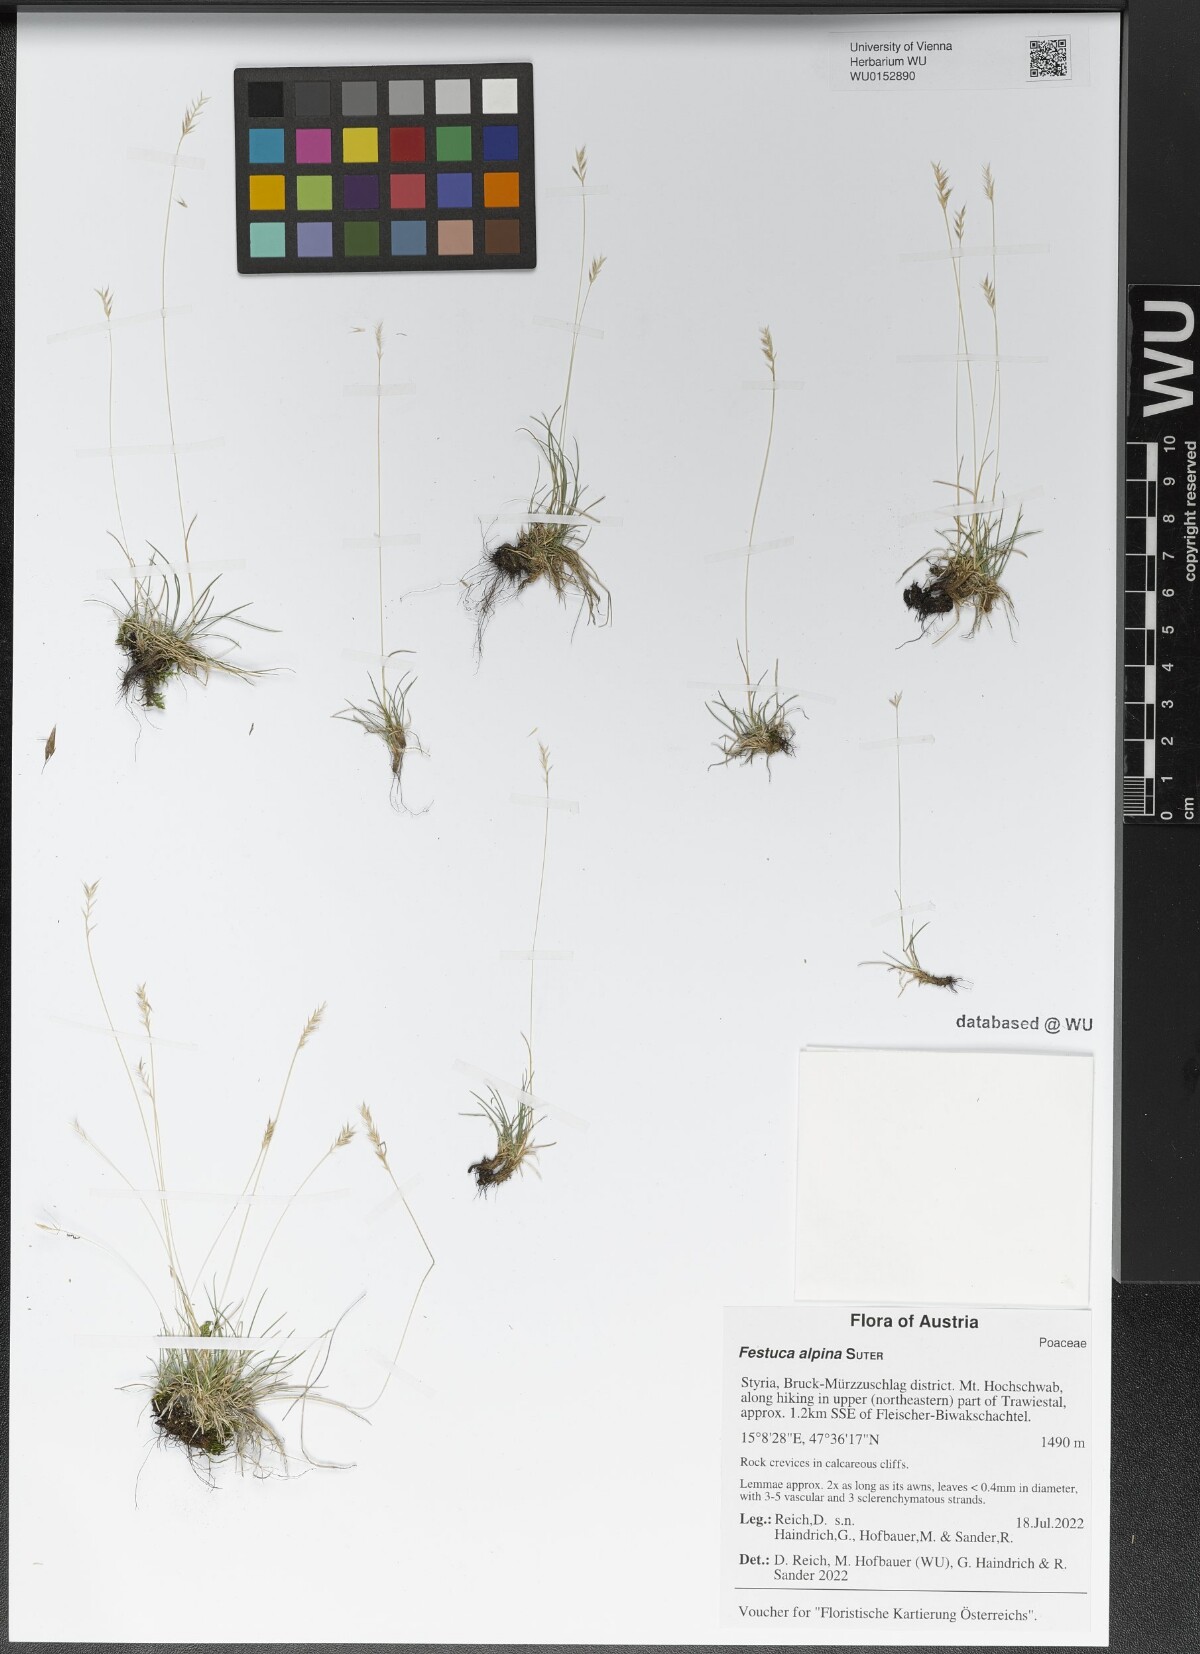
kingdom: Plantae
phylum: Tracheophyta
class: Liliopsida
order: Poales
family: Poaceae
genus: Festuca
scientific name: Festuca alpina
